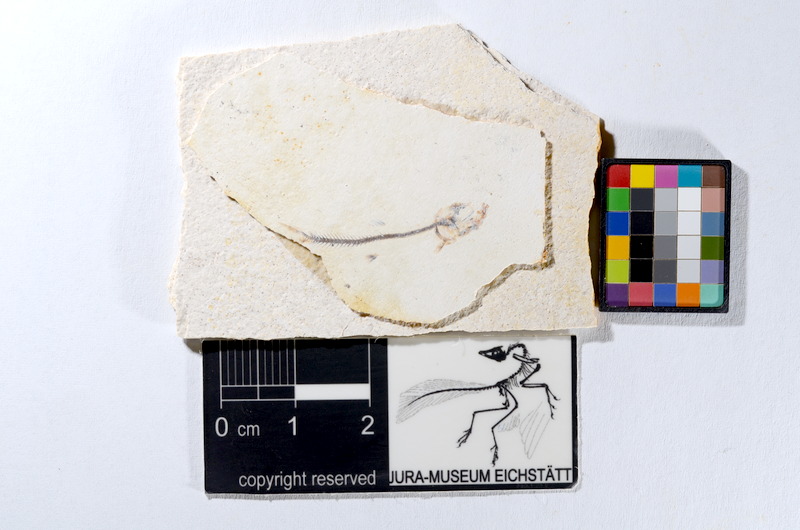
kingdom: Animalia
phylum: Chordata
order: Salmoniformes
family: Orthogonikleithridae
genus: Orthogonikleithrus
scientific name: Orthogonikleithrus hoelli
